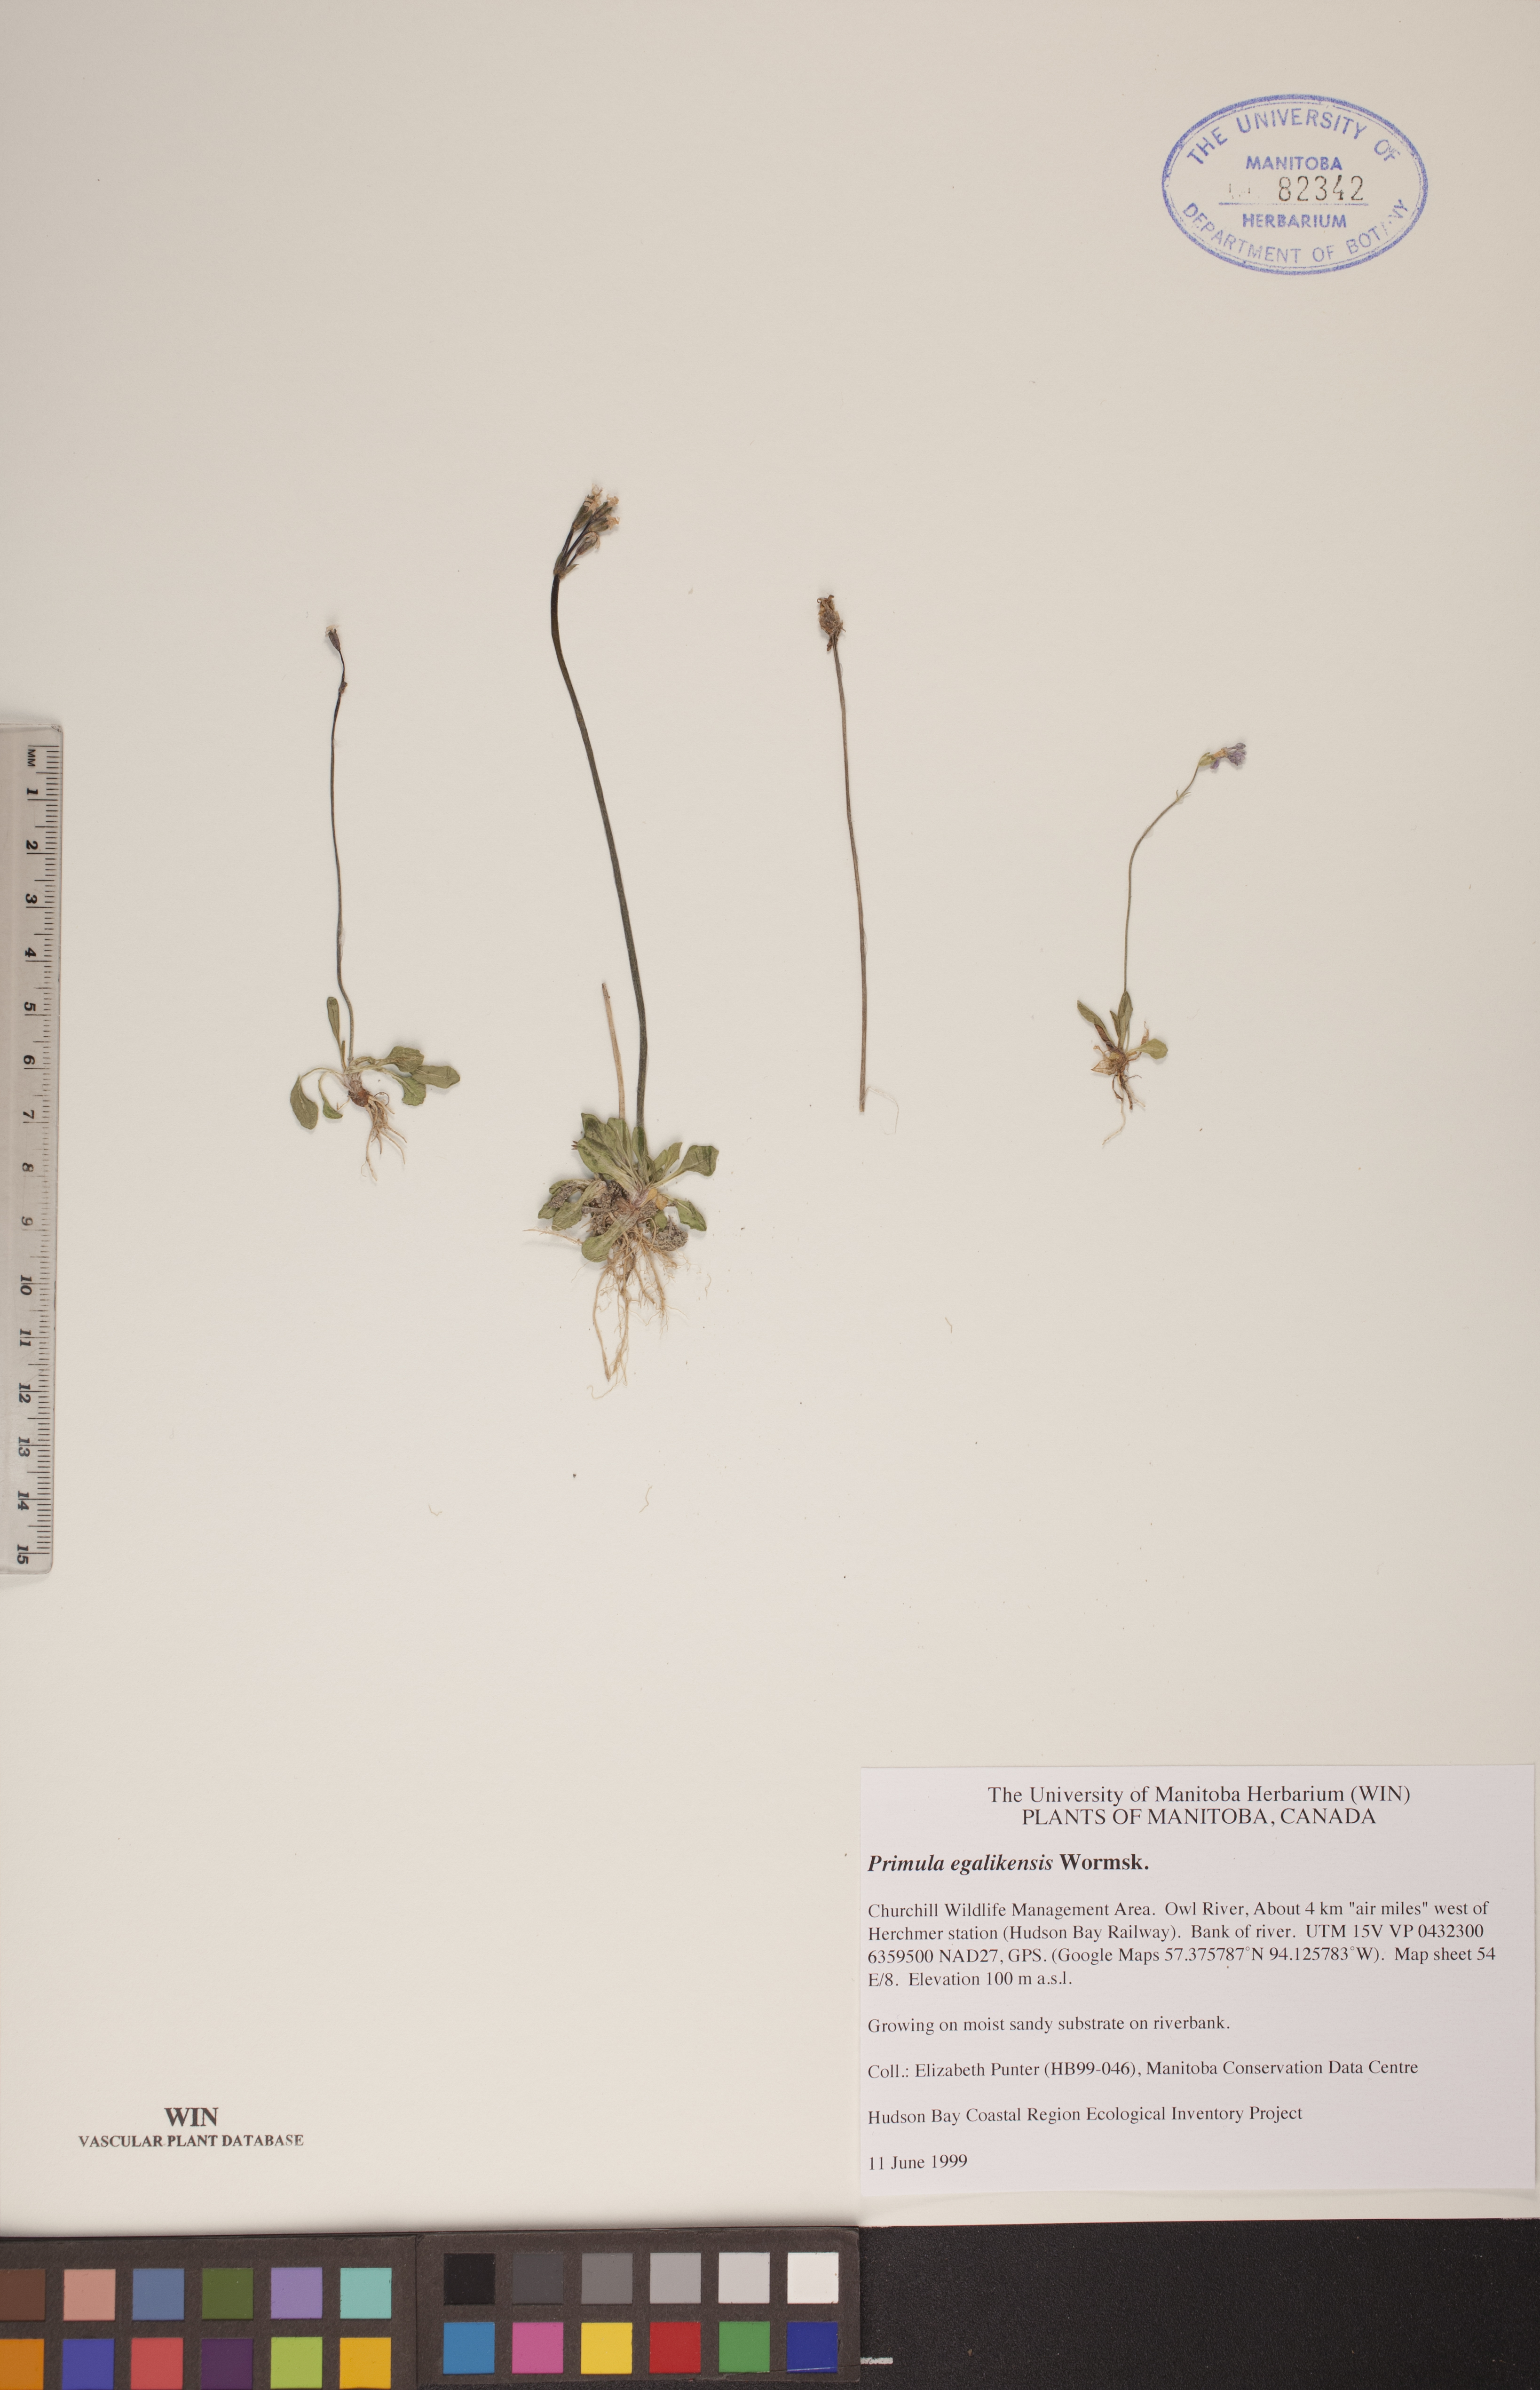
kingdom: Plantae
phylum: Tracheophyta
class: Magnoliopsida
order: Ericales
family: Primulaceae
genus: Primula
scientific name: Primula egaliksensis
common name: Greenland primrose
